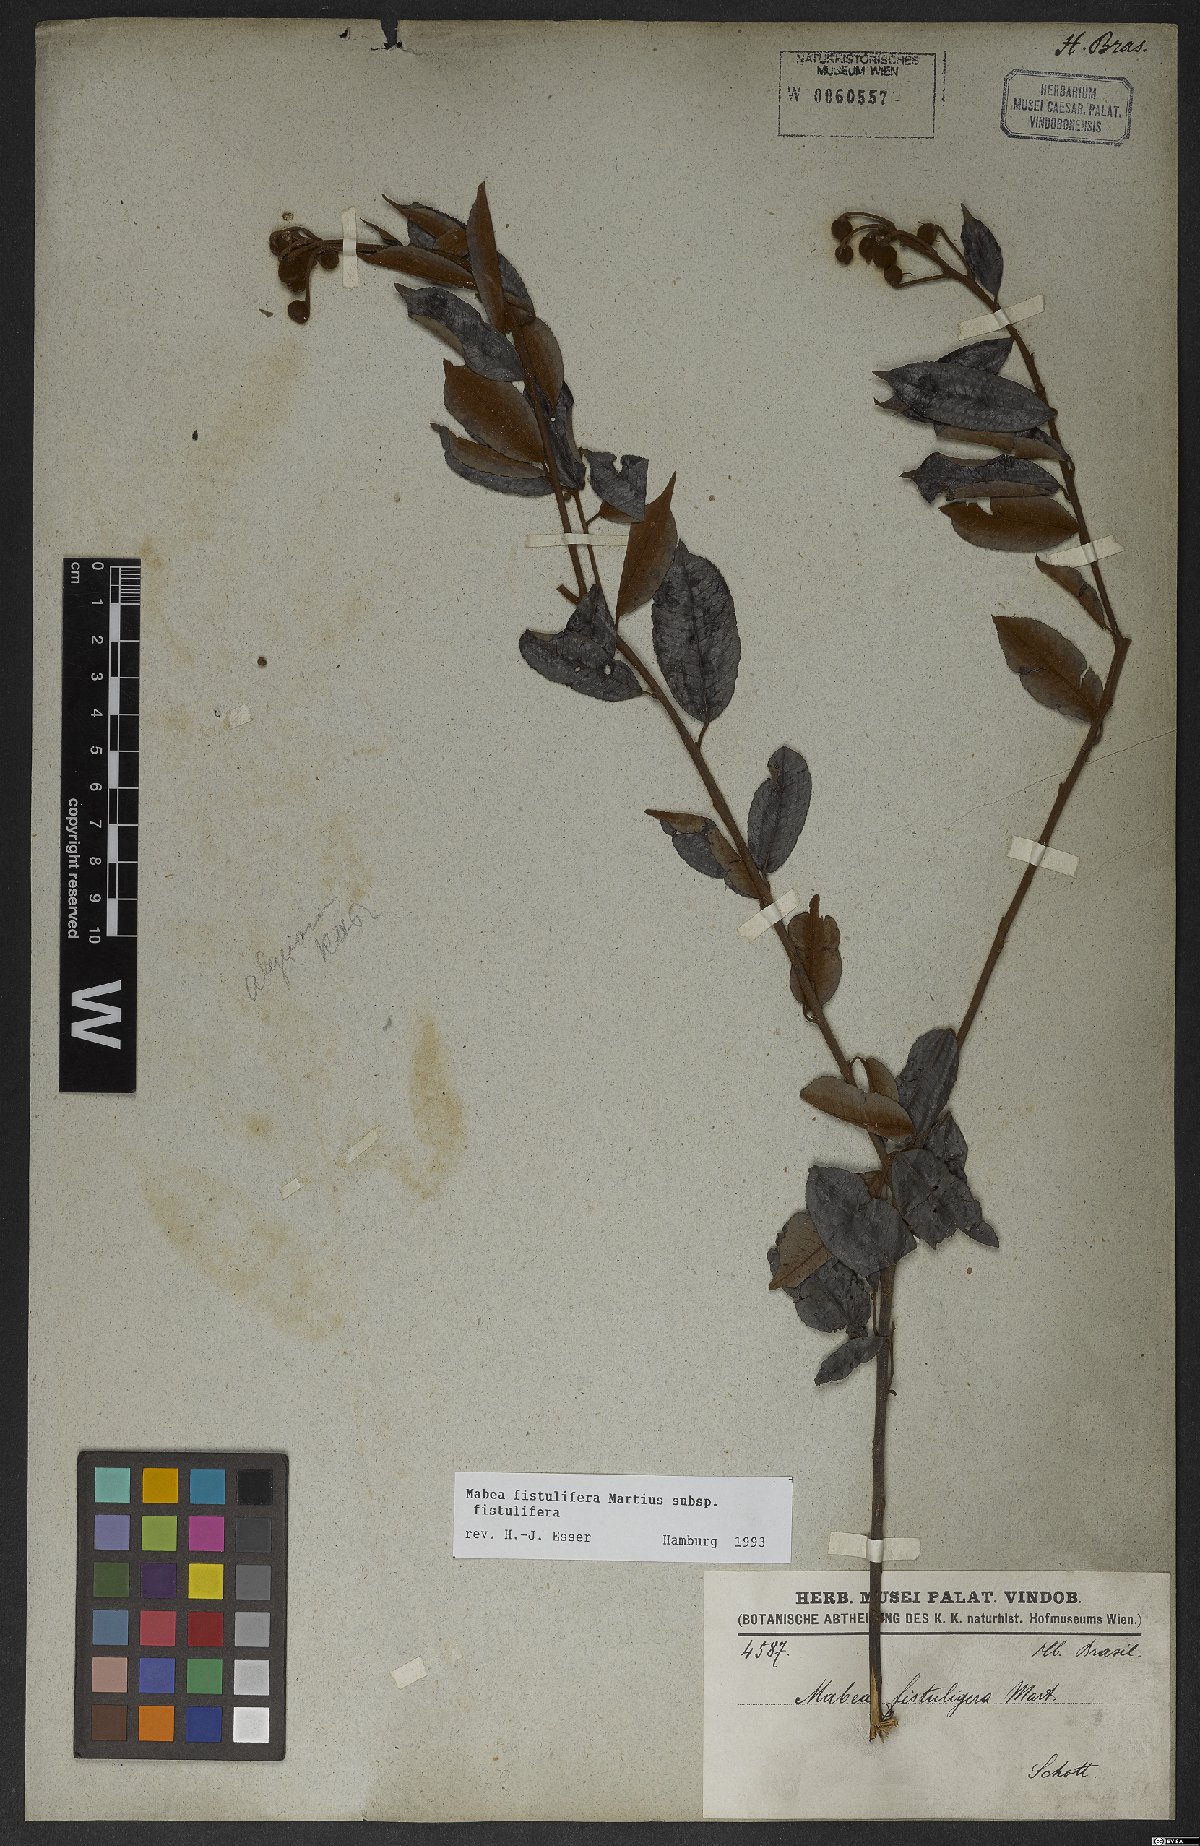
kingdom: Plantae
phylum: Tracheophyta
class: Magnoliopsida
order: Malpighiales
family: Euphorbiaceae
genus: Mabea
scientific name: Mabea fistulifera
